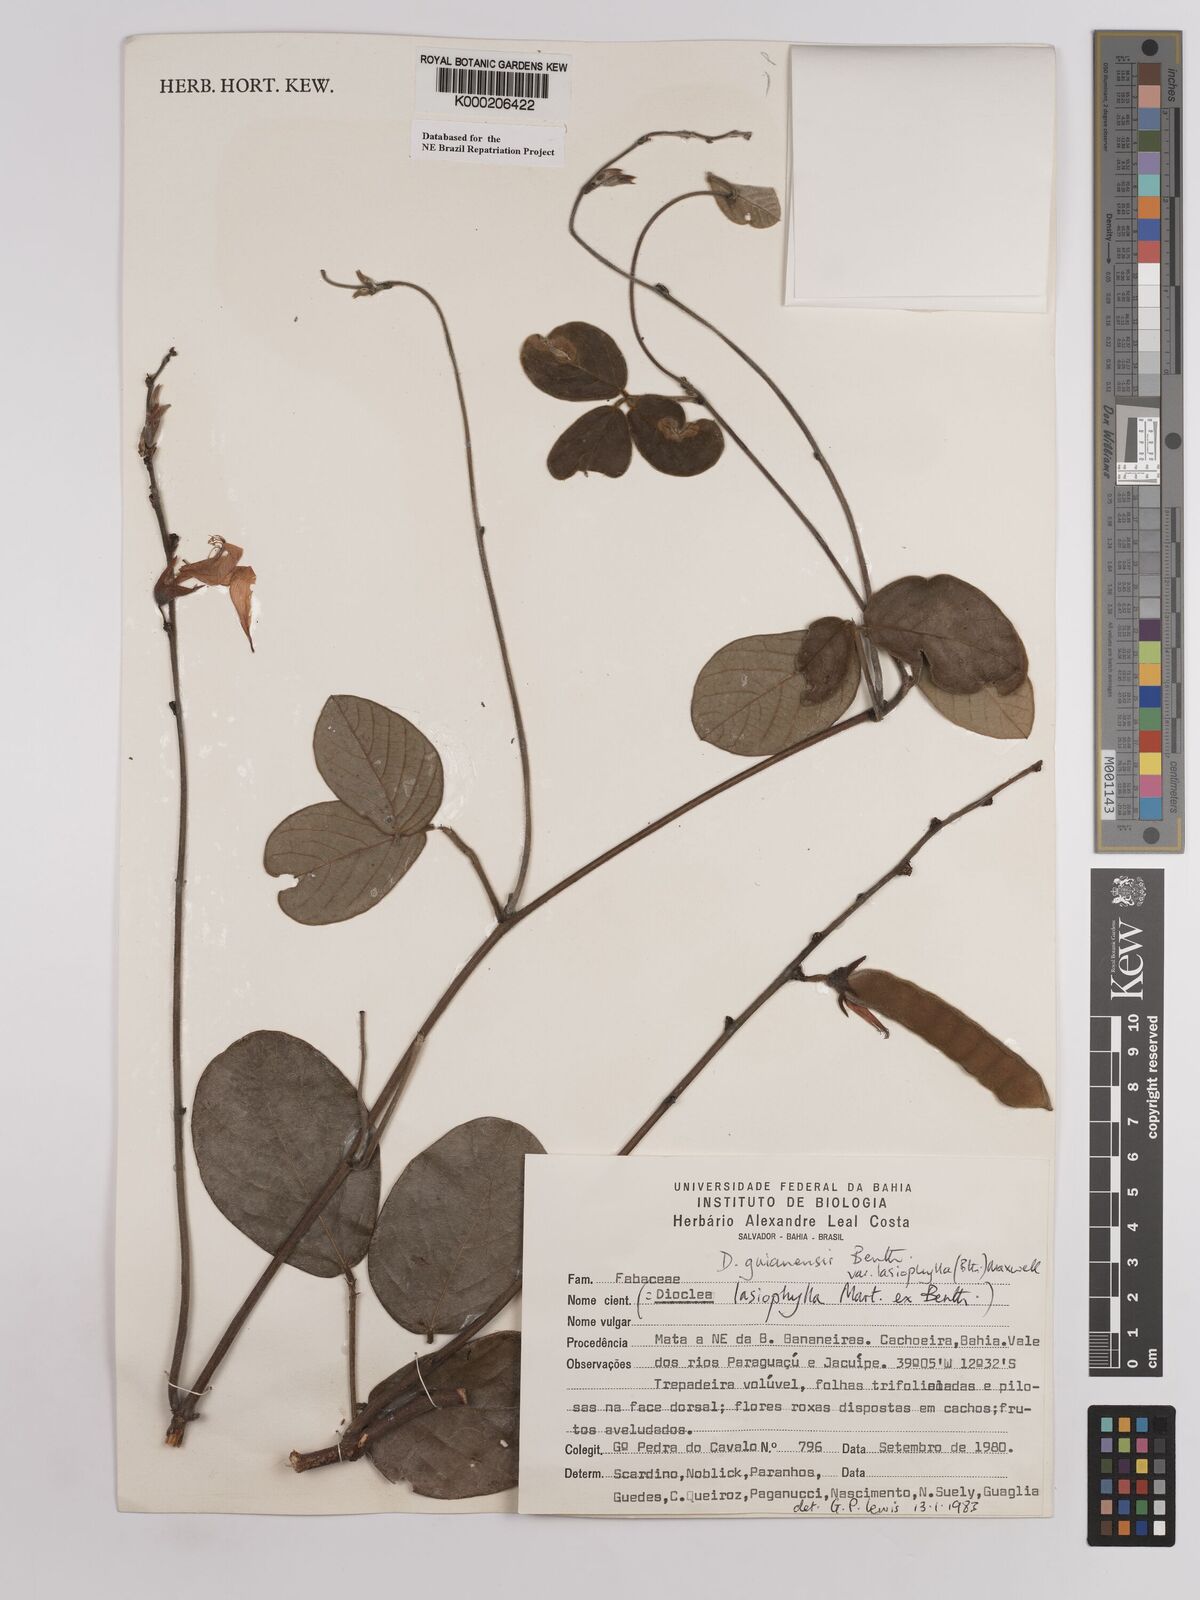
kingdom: Plantae
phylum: Tracheophyta
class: Magnoliopsida
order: Fabales
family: Fabaceae
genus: Dioclea
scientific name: Dioclea lasiophylla
